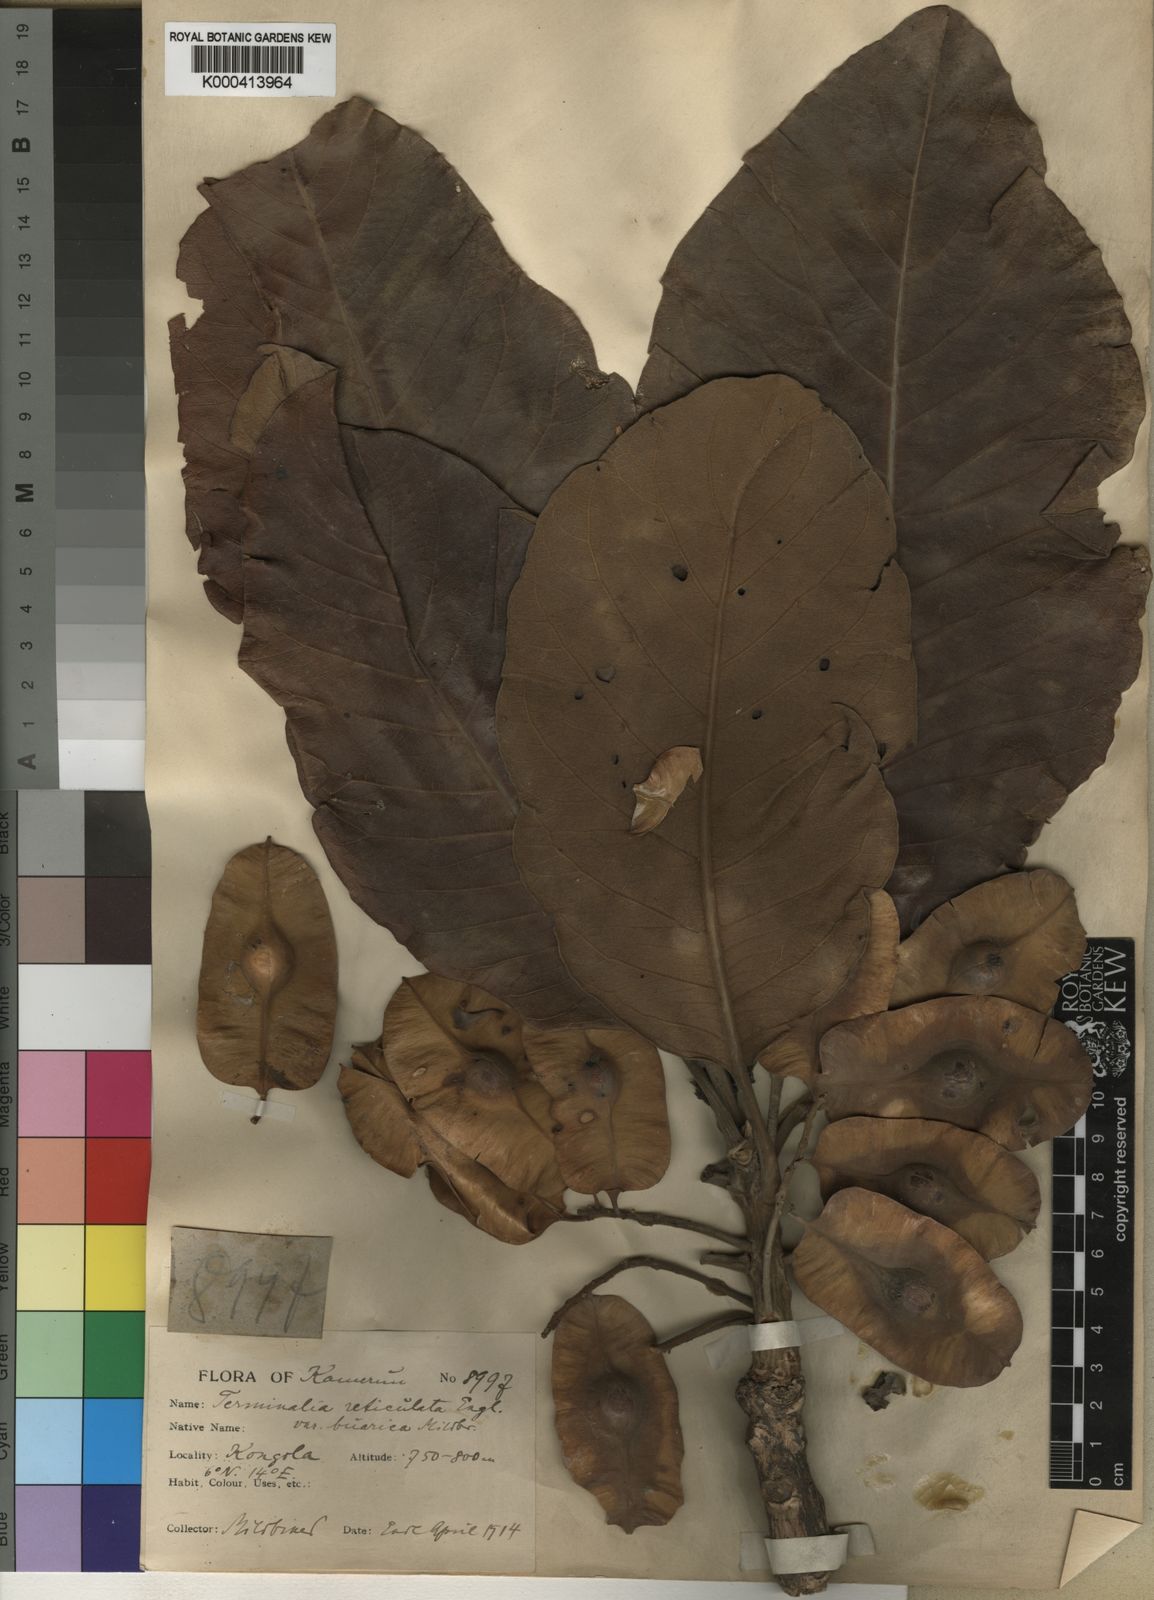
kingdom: Plantae
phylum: Tracheophyta
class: Magnoliopsida
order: Myrtales
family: Combretaceae
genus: Terminalia
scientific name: Terminalia mollis
